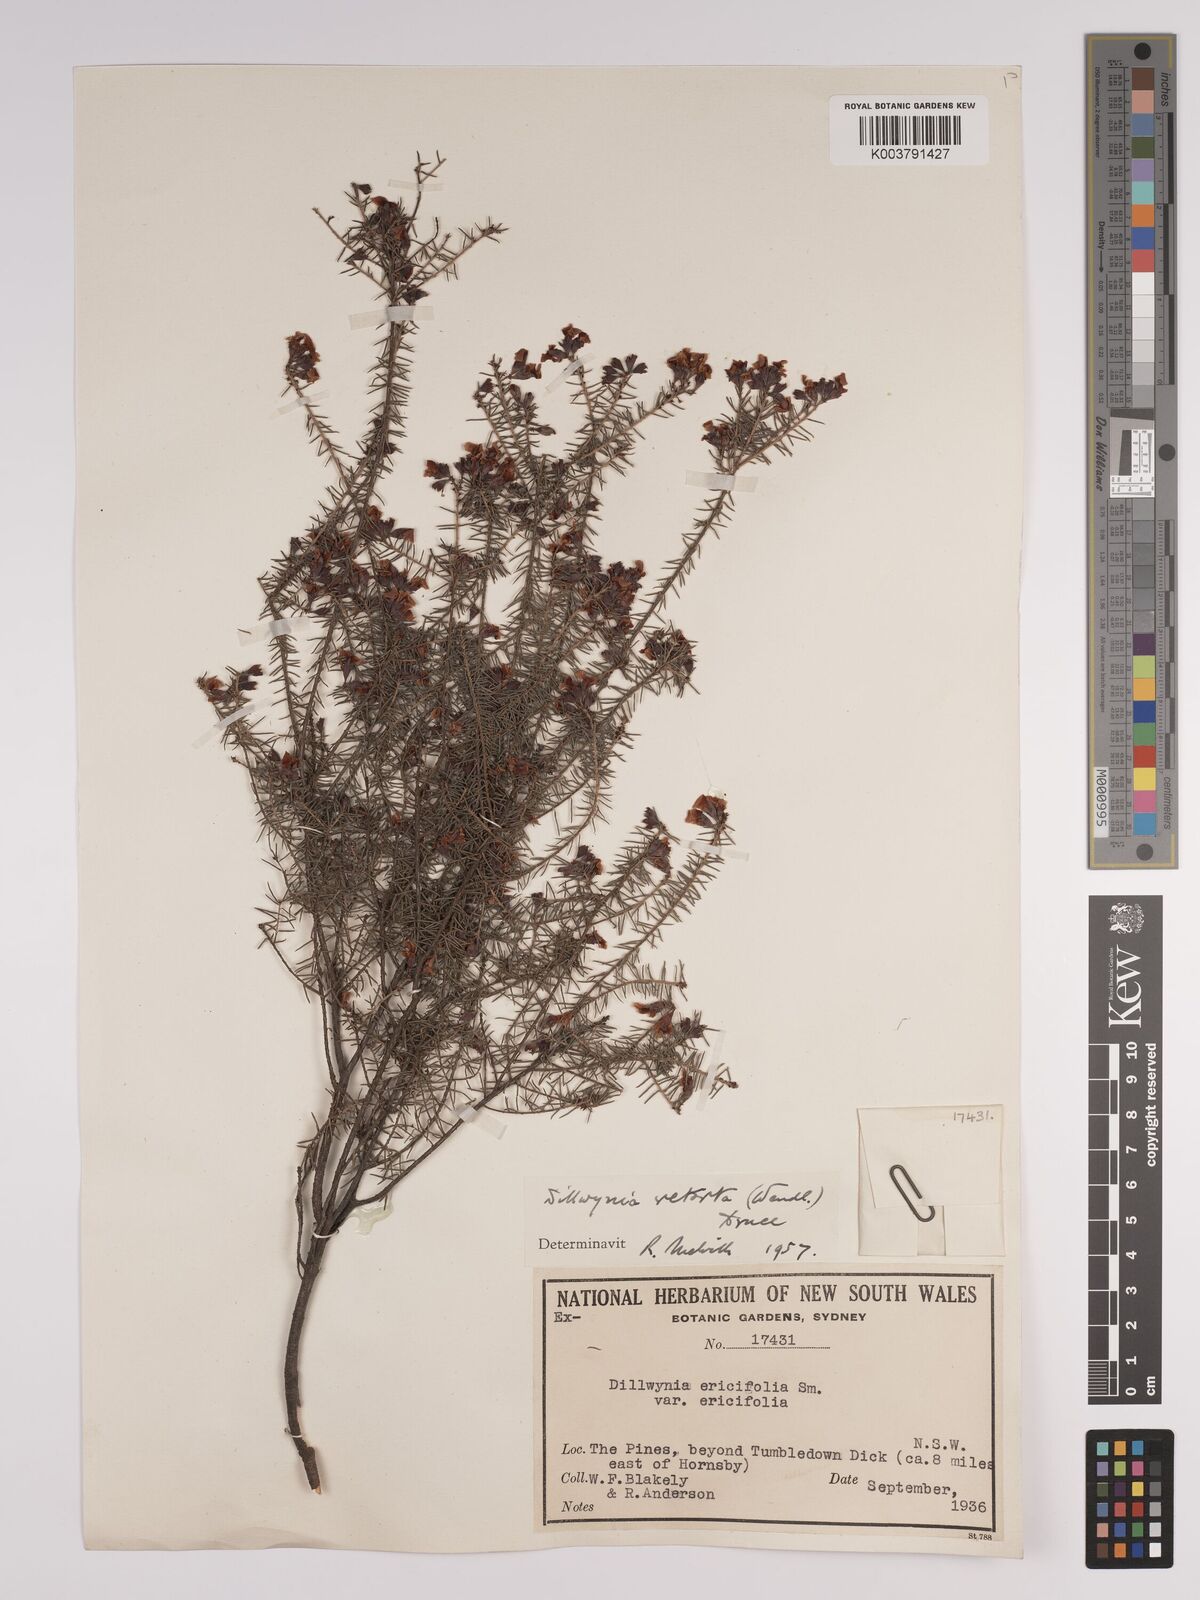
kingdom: Plantae
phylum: Tracheophyta
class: Magnoliopsida
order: Fabales
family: Fabaceae
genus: Dillwynia
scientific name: Dillwynia retorta
